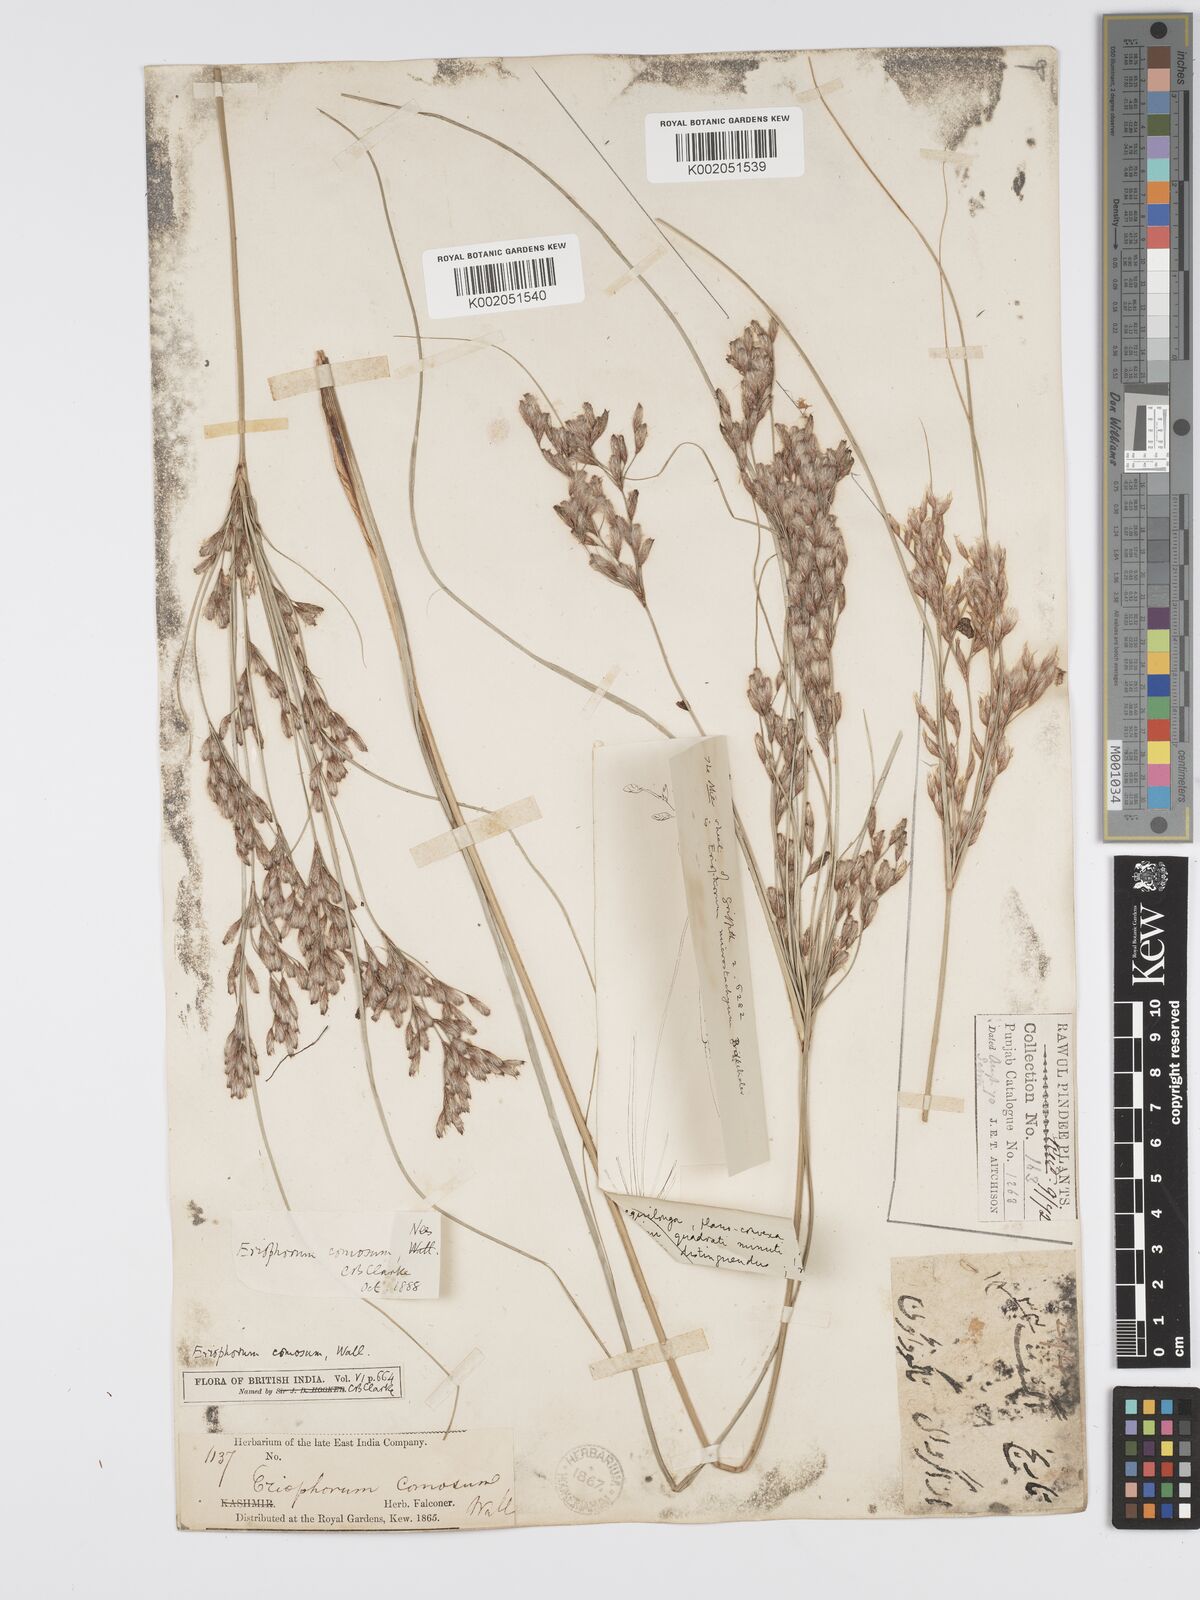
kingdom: Plantae
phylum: Tracheophyta
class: Liliopsida
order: Poales
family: Cyperaceae
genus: Erioscirpus
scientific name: Erioscirpus comosus
